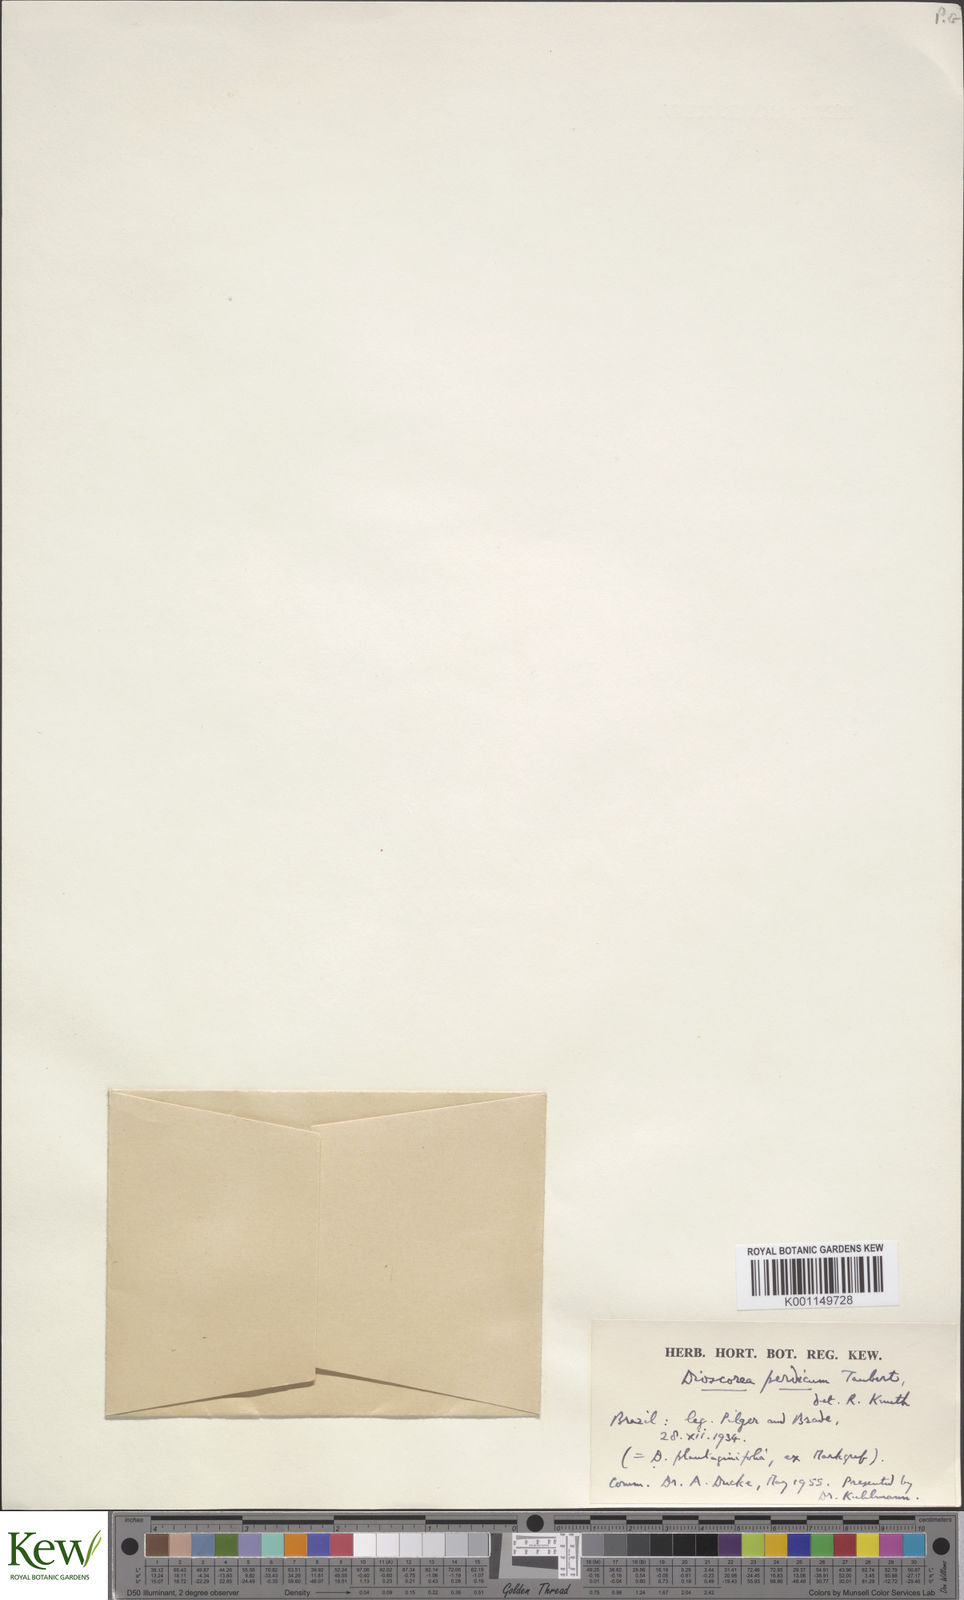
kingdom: Plantae
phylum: Tracheophyta
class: Liliopsida
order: Dioscoreales
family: Dioscoreaceae
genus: Dioscorea
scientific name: Dioscorea perdicum
